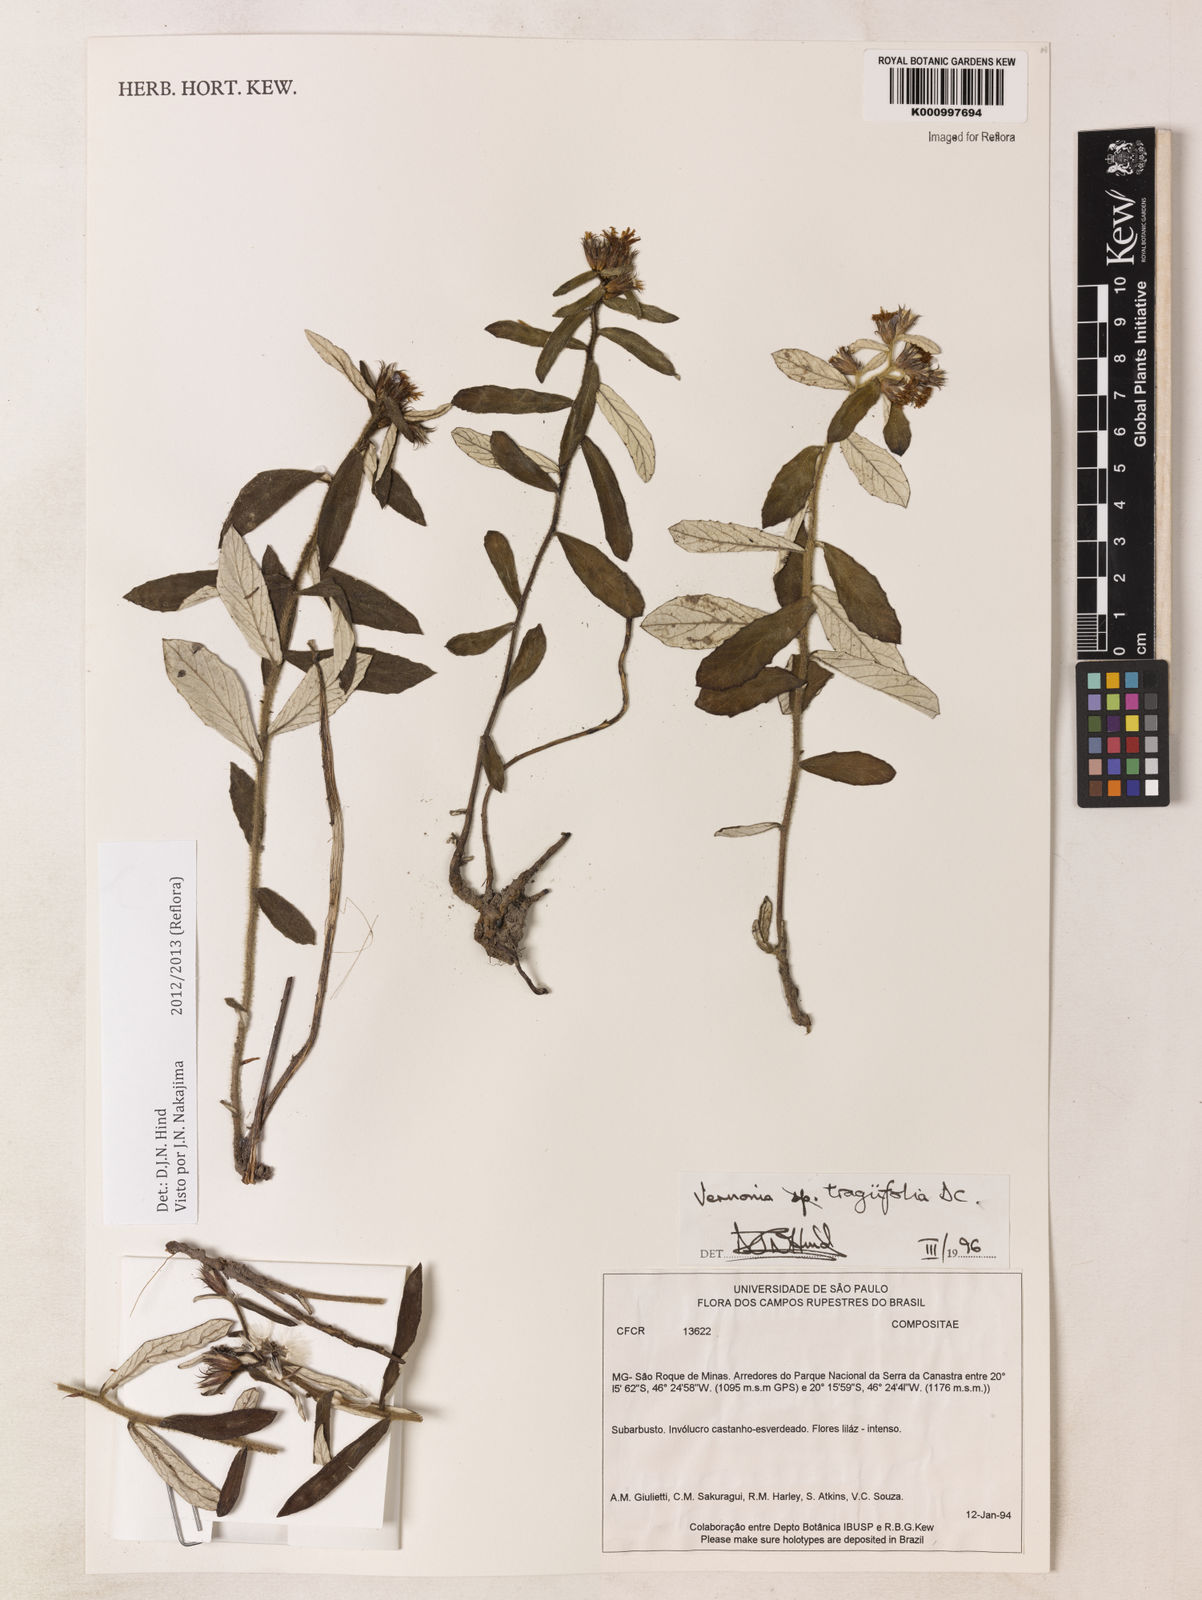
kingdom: Plantae
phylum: Tracheophyta
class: Magnoliopsida
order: Asterales
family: Asteraceae
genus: Vernonia
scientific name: Vernonia
